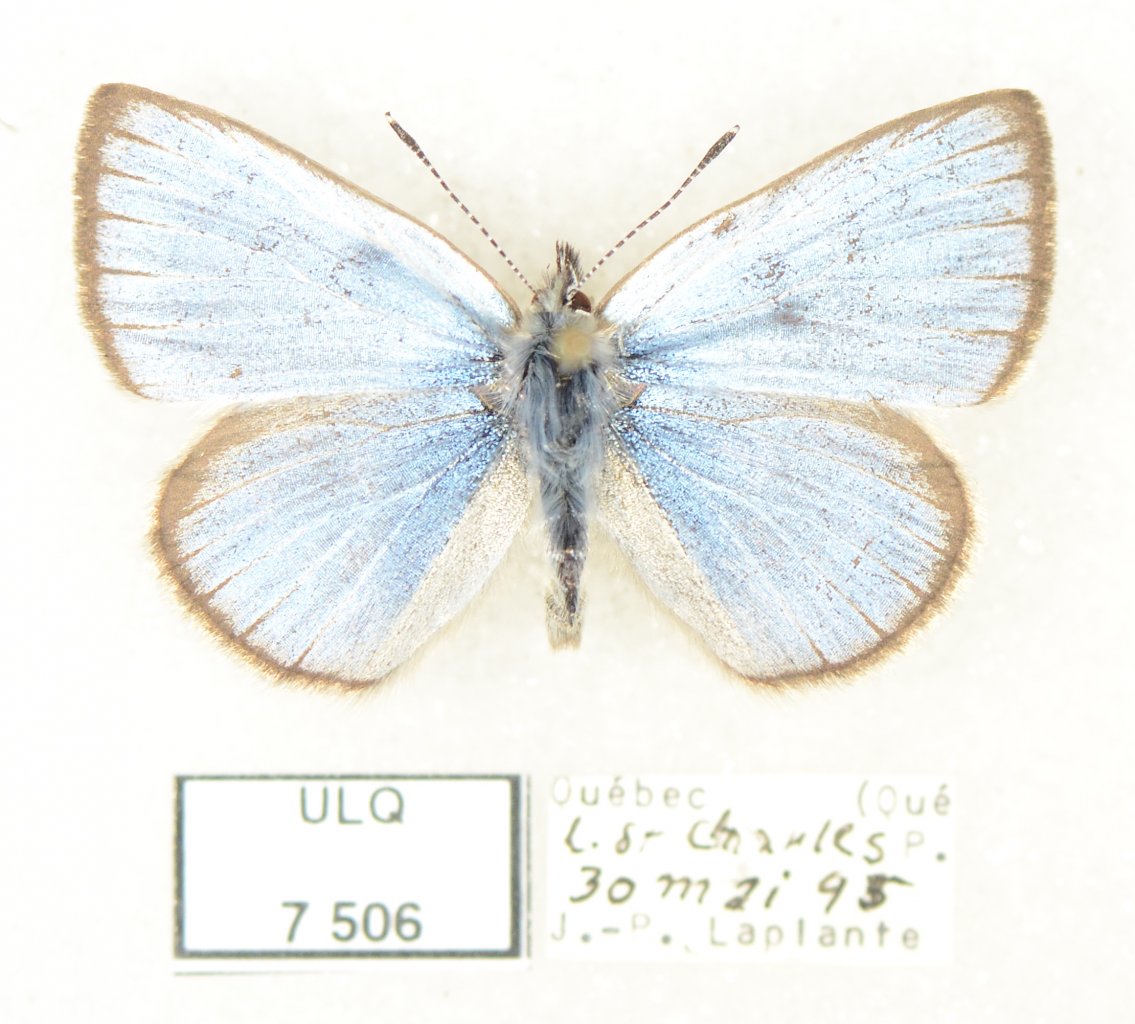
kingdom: Animalia
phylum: Arthropoda
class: Insecta
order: Lepidoptera
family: Lycaenidae
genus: Glaucopsyche
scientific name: Glaucopsyche lygdamus
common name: Silvery Blue
